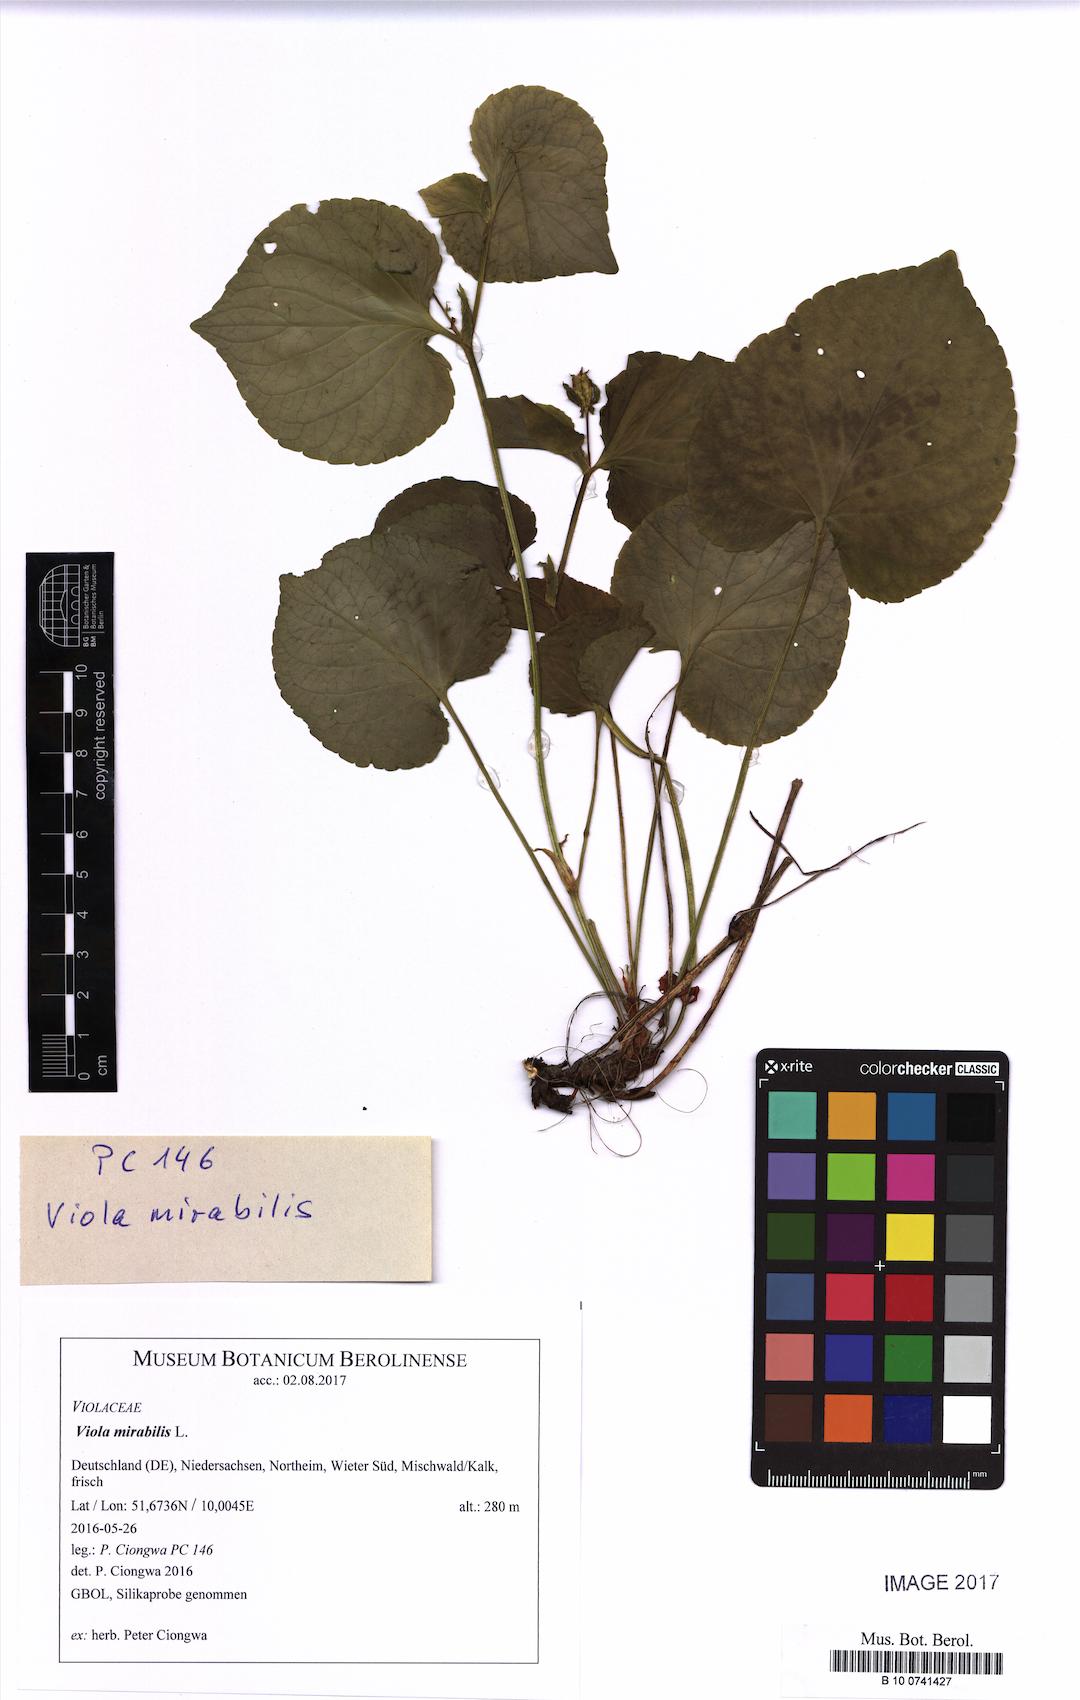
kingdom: Plantae
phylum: Tracheophyta
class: Magnoliopsida
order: Malpighiales
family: Violaceae
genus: Viola
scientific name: Viola mirabilis
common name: Wonder violet
